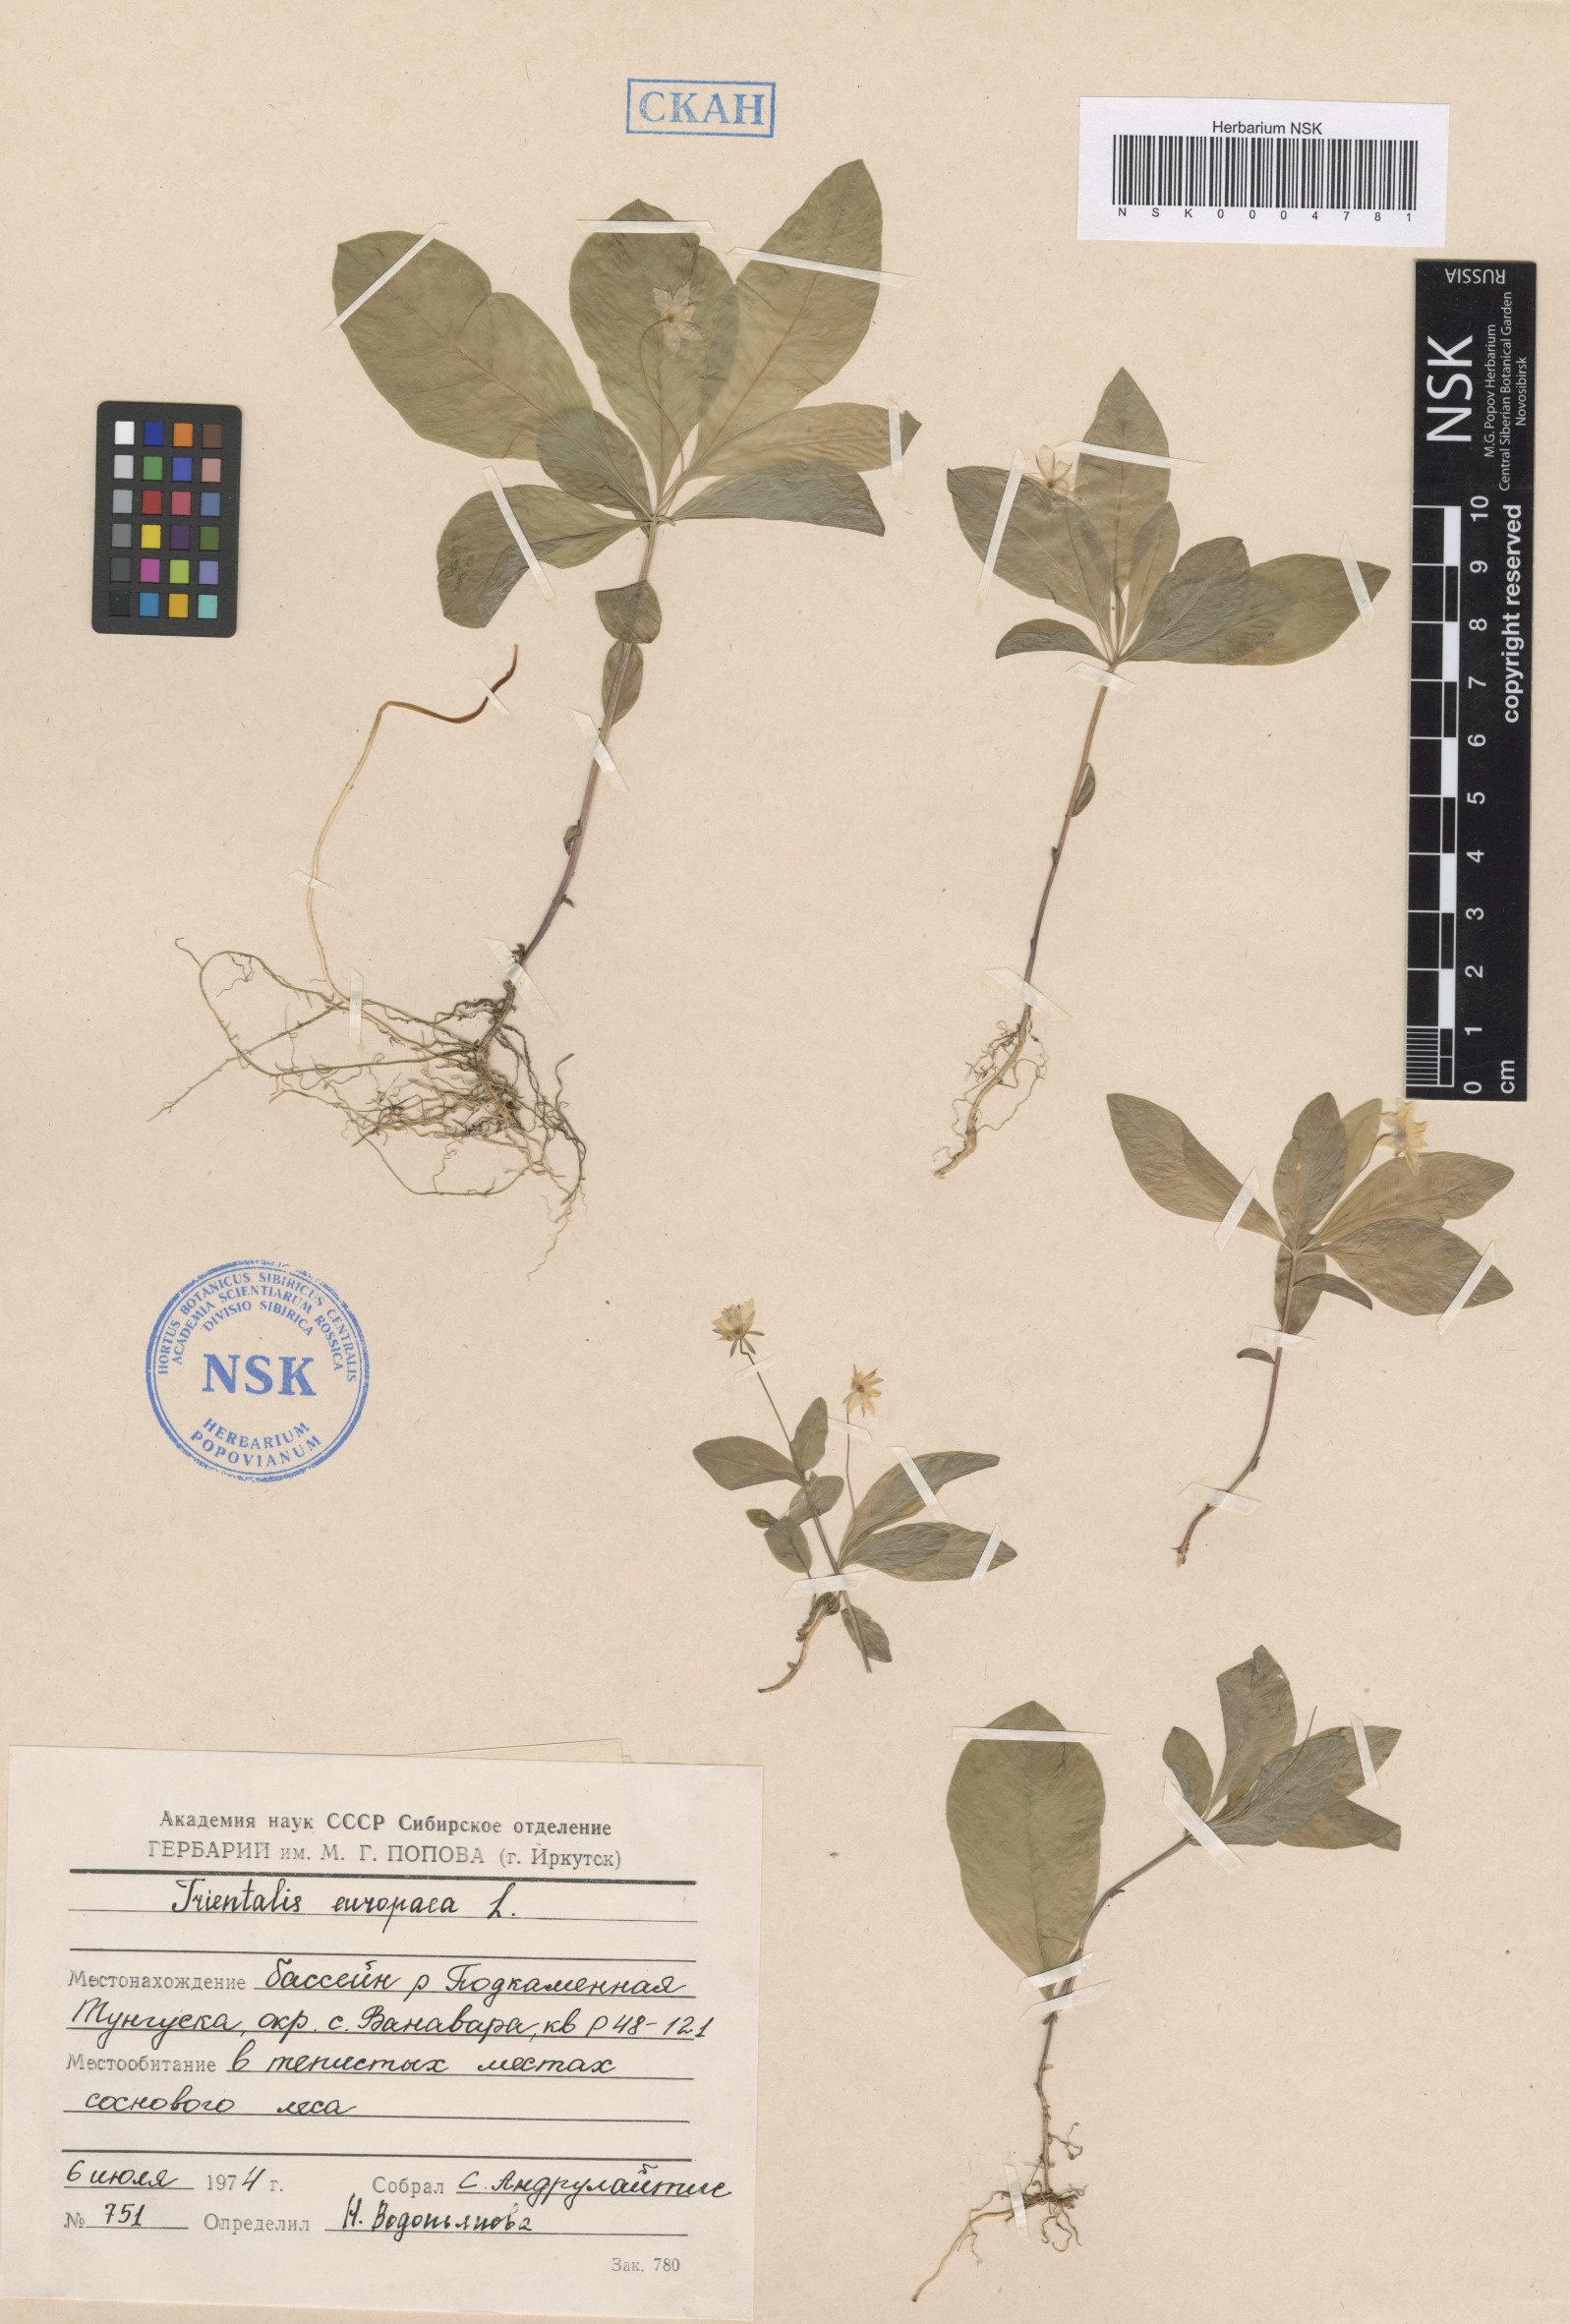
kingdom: Plantae
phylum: Tracheophyta
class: Magnoliopsida
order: Ericales
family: Primulaceae
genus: Lysimachia
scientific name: Lysimachia europaea
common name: Arctic starflower
